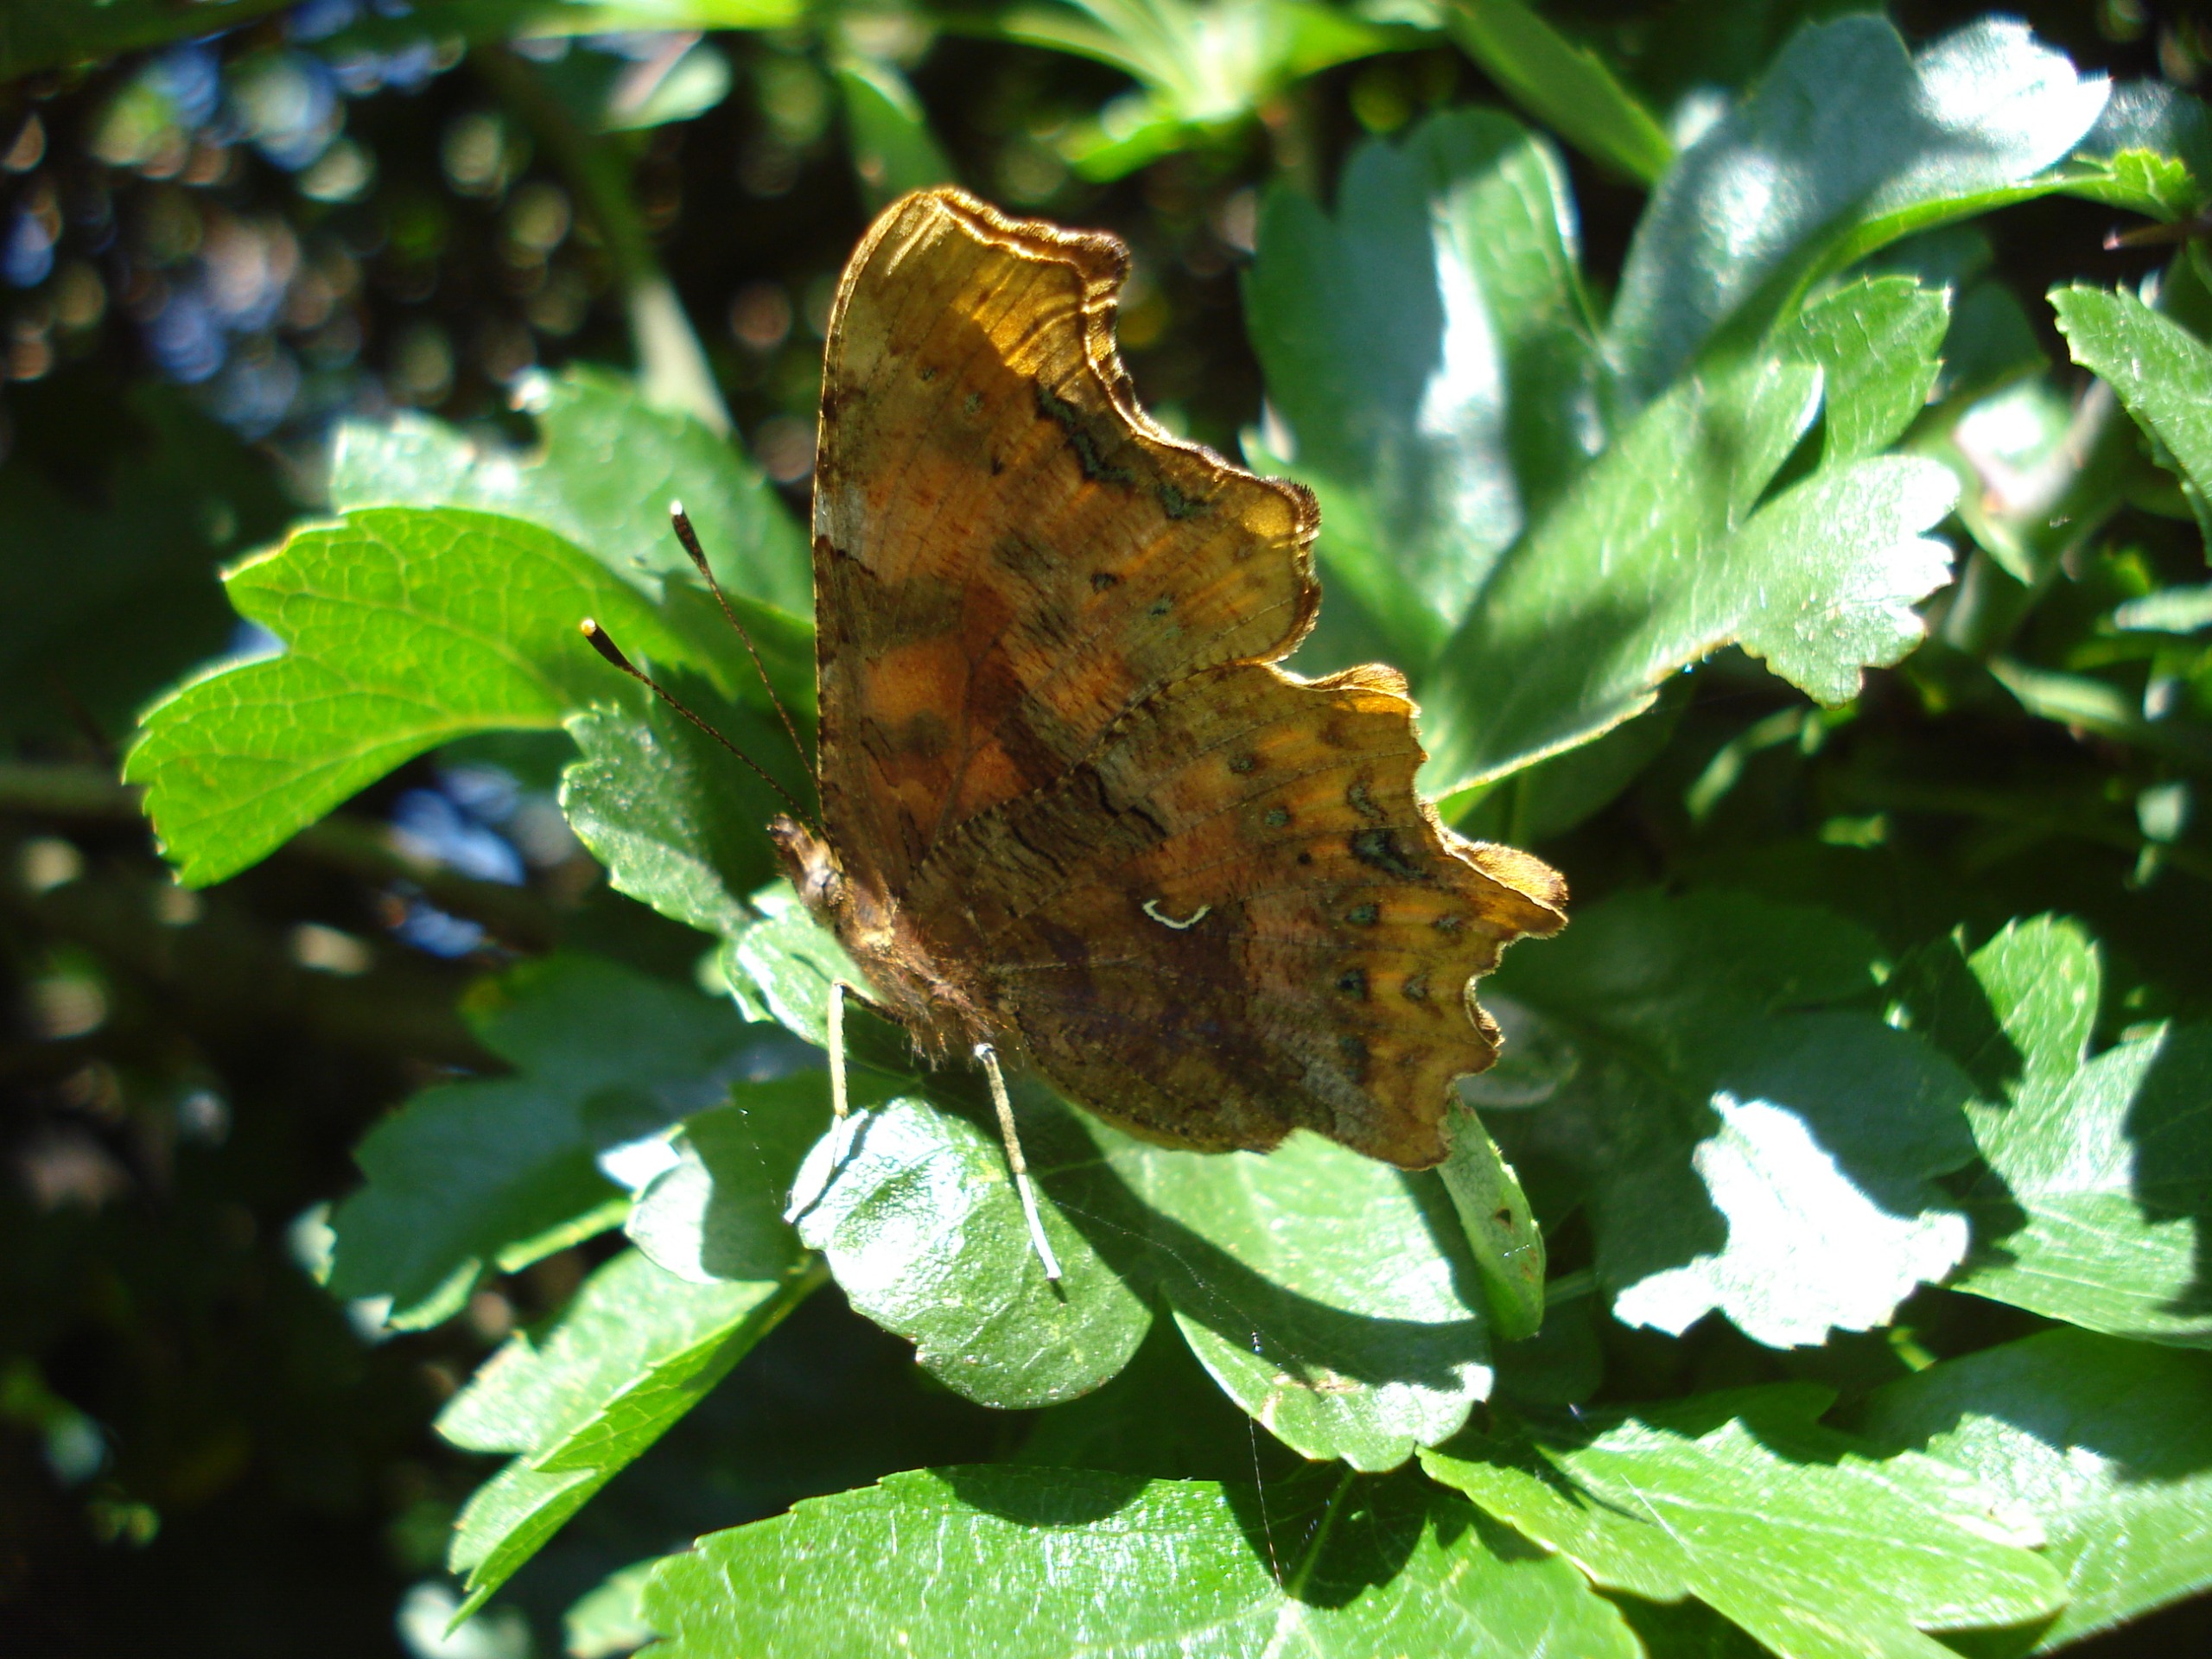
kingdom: Animalia
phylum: Arthropoda
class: Insecta
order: Lepidoptera
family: Nymphalidae
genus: Polygonia
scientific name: Polygonia c-album
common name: Det hvide C
